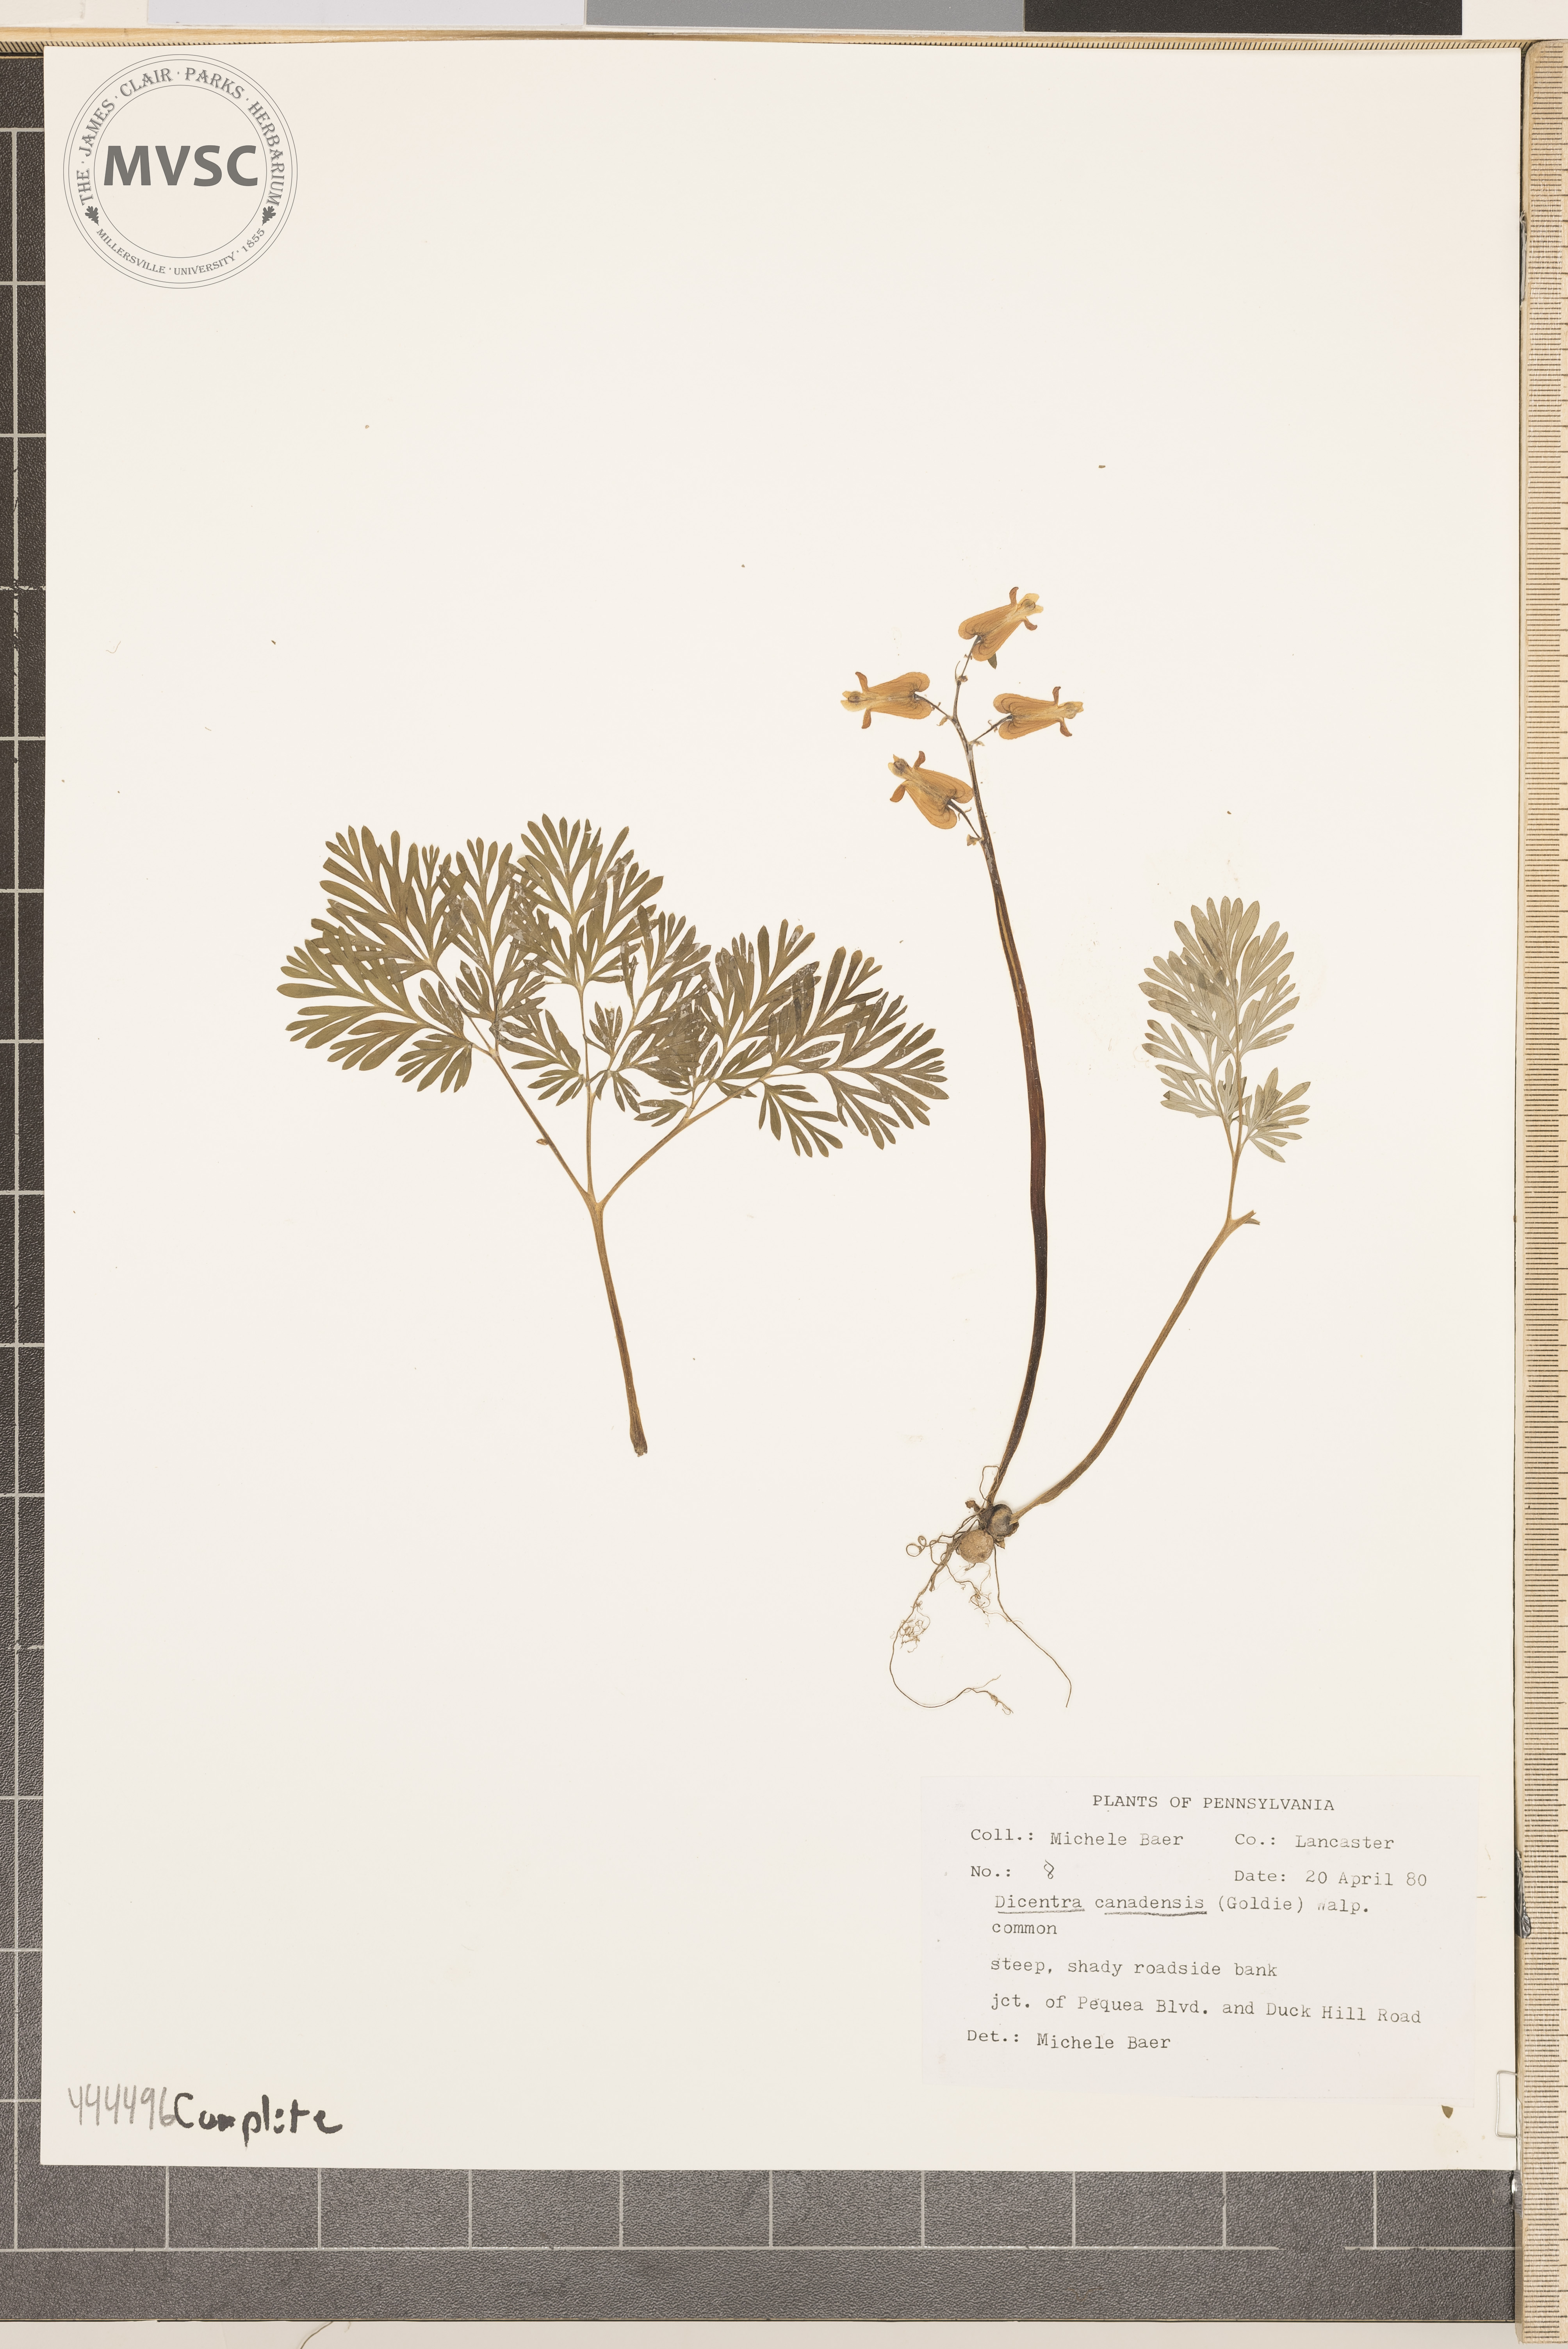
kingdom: Plantae
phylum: Tracheophyta
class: Magnoliopsida
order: Ranunculales
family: Papaveraceae
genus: Dicentra
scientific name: Dicentra canadensis
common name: Squirrel-corn
